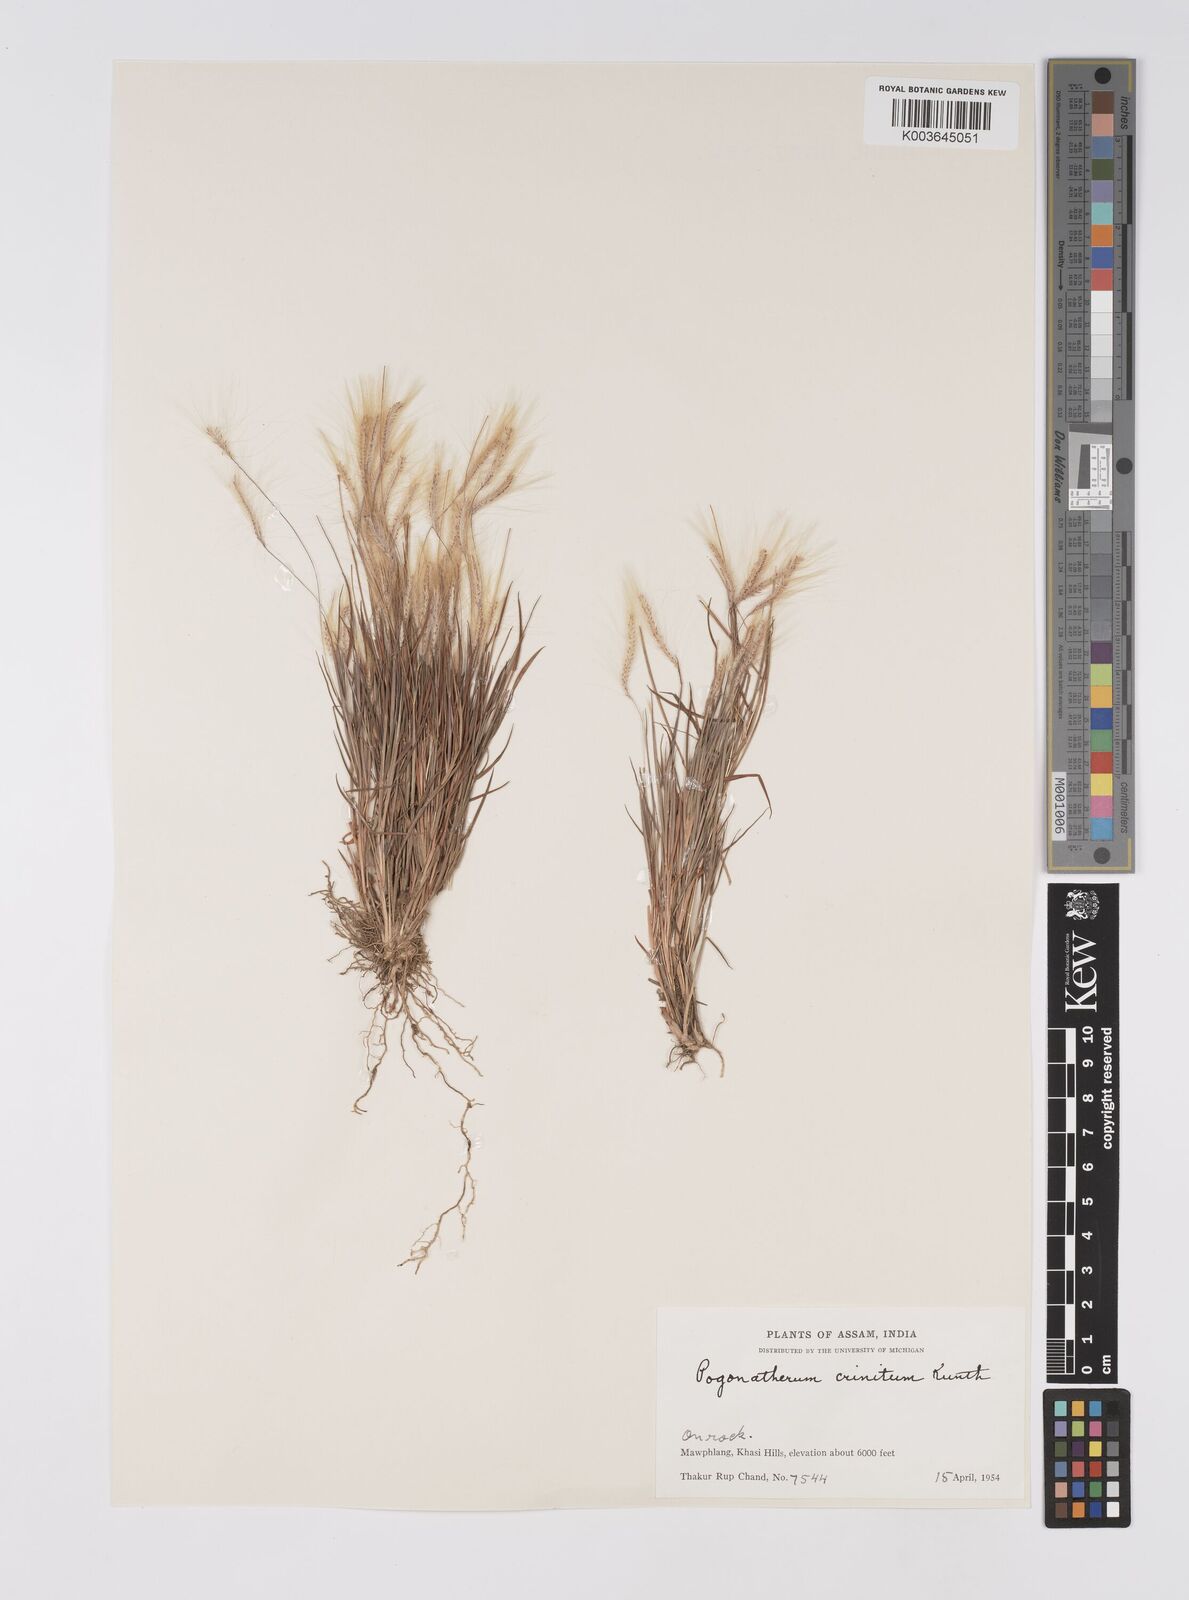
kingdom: Plantae
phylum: Tracheophyta
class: Liliopsida
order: Poales
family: Poaceae
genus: Pogonatherum
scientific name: Pogonatherum crinitum
